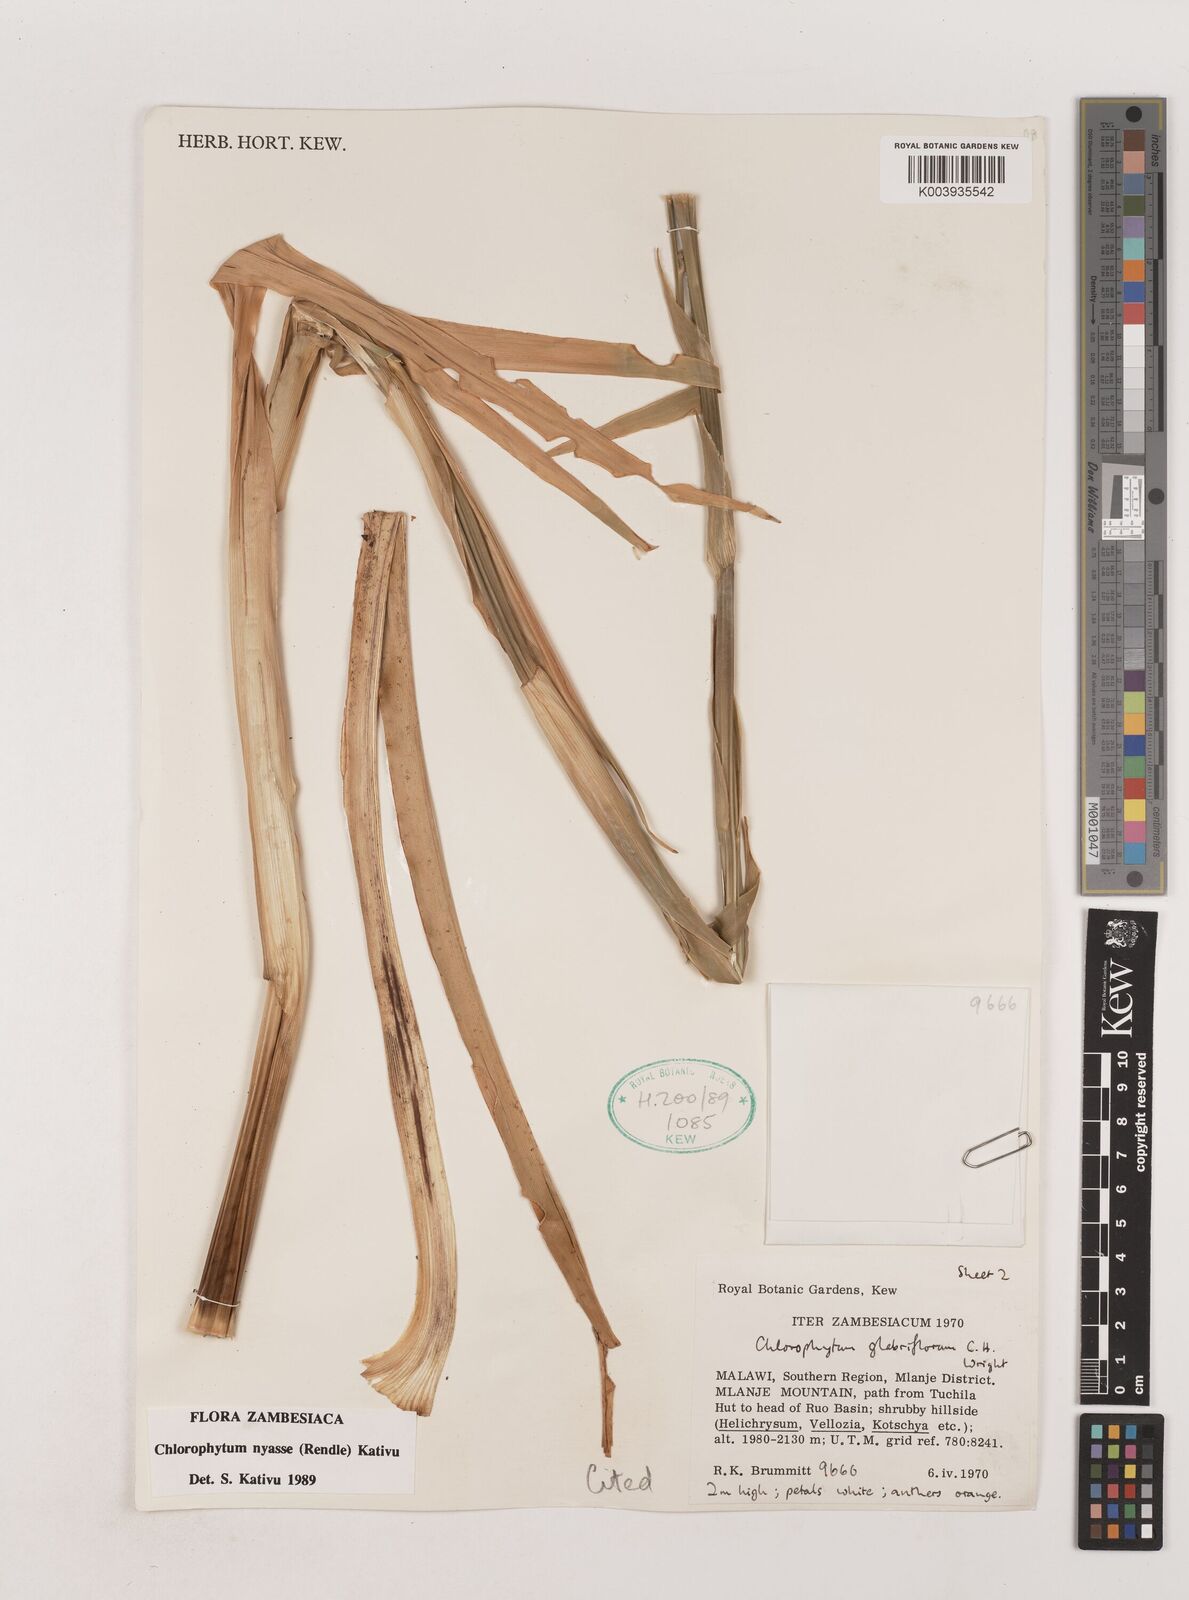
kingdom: Plantae
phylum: Tracheophyta
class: Liliopsida
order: Asparagales
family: Asparagaceae
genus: Chlorophytum
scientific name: Chlorophytum nyasae
